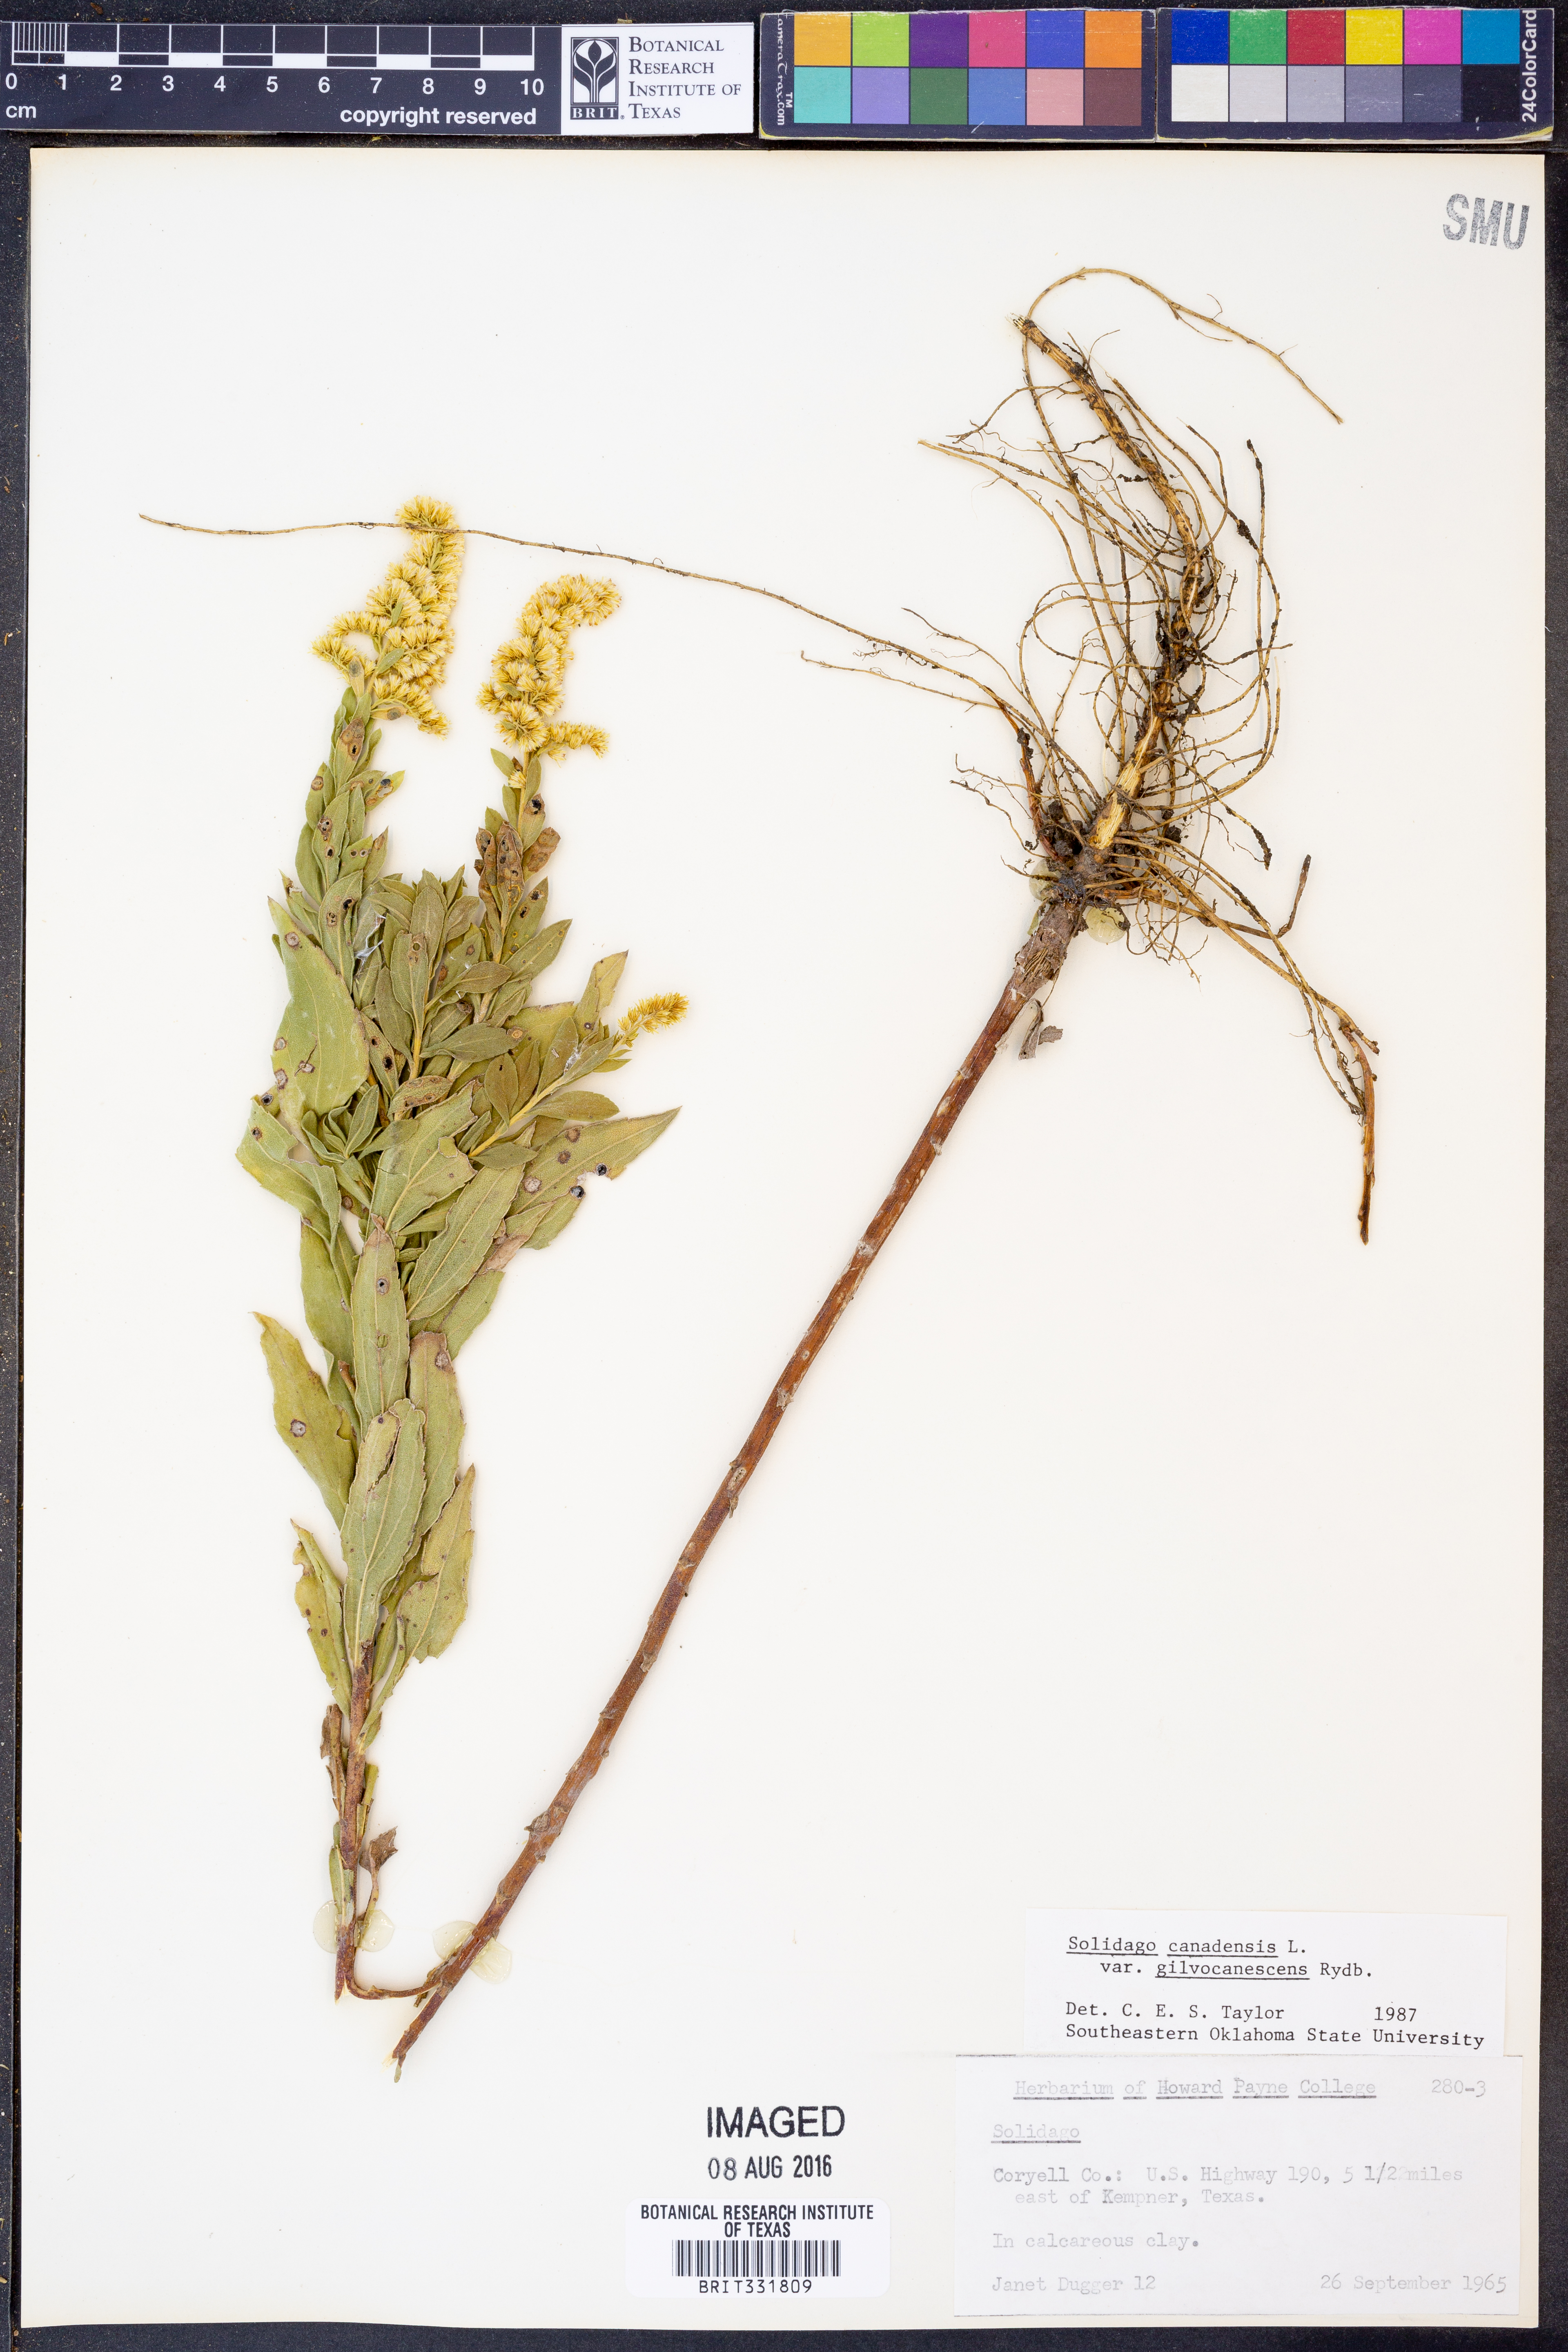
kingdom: Plantae
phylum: Tracheophyta
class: Magnoliopsida
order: Asterales
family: Asteraceae
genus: Solidago
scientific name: Solidago altissima
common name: Late goldenrod
